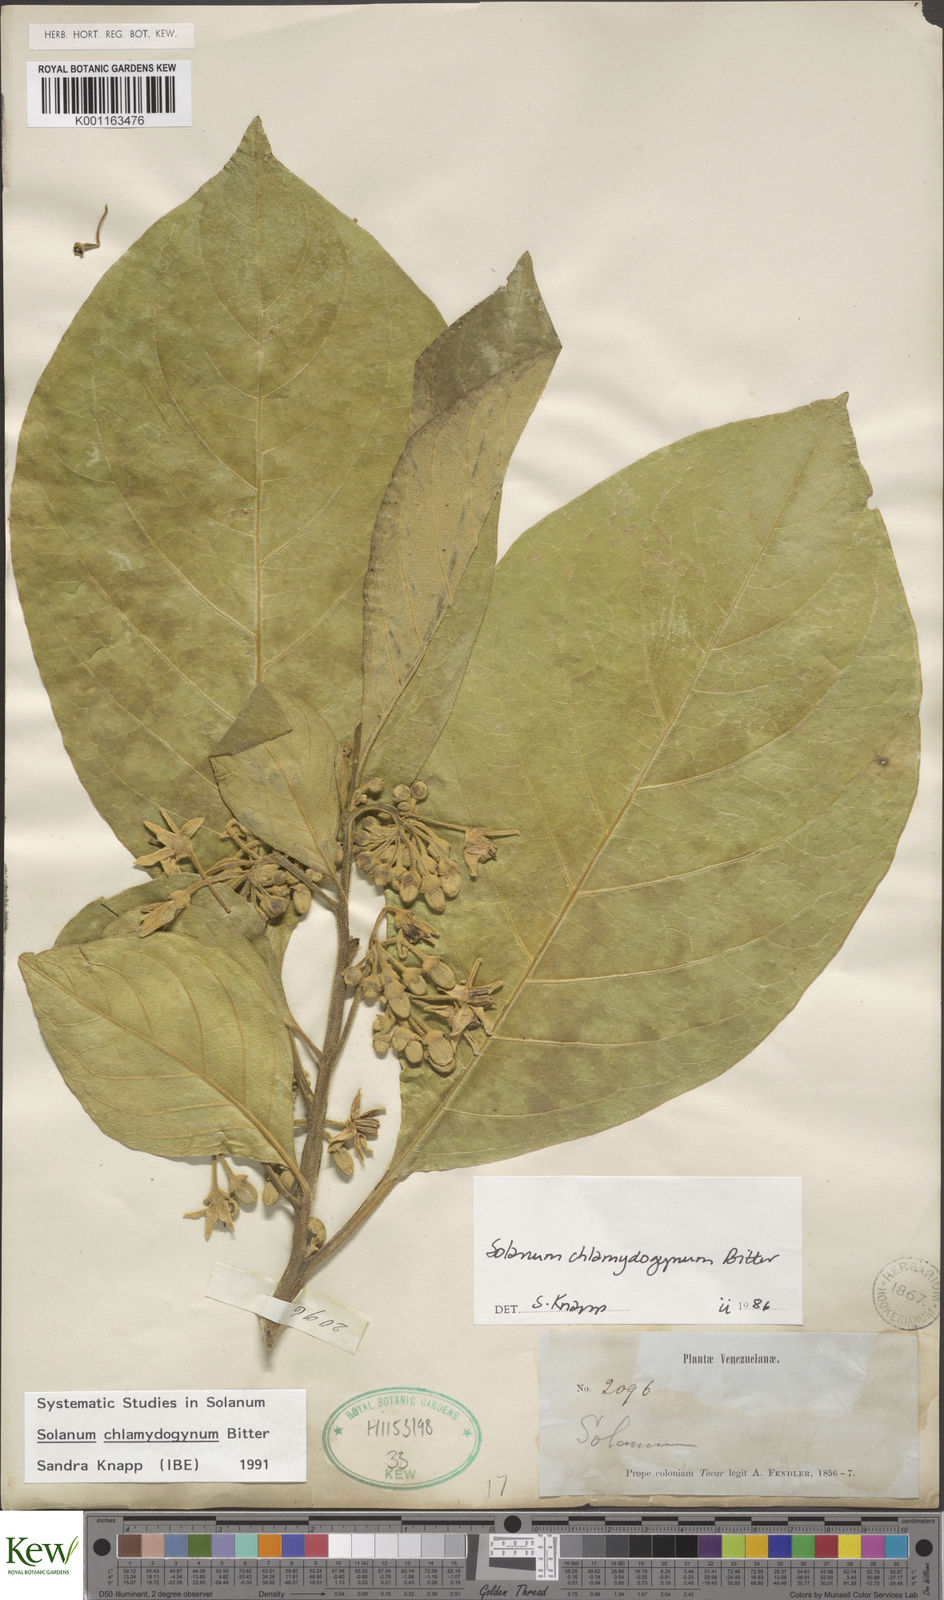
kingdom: Plantae
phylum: Tracheophyta
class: Magnoliopsida
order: Solanales
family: Solanaceae
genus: Solanum
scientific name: Solanum chlamydogynum
